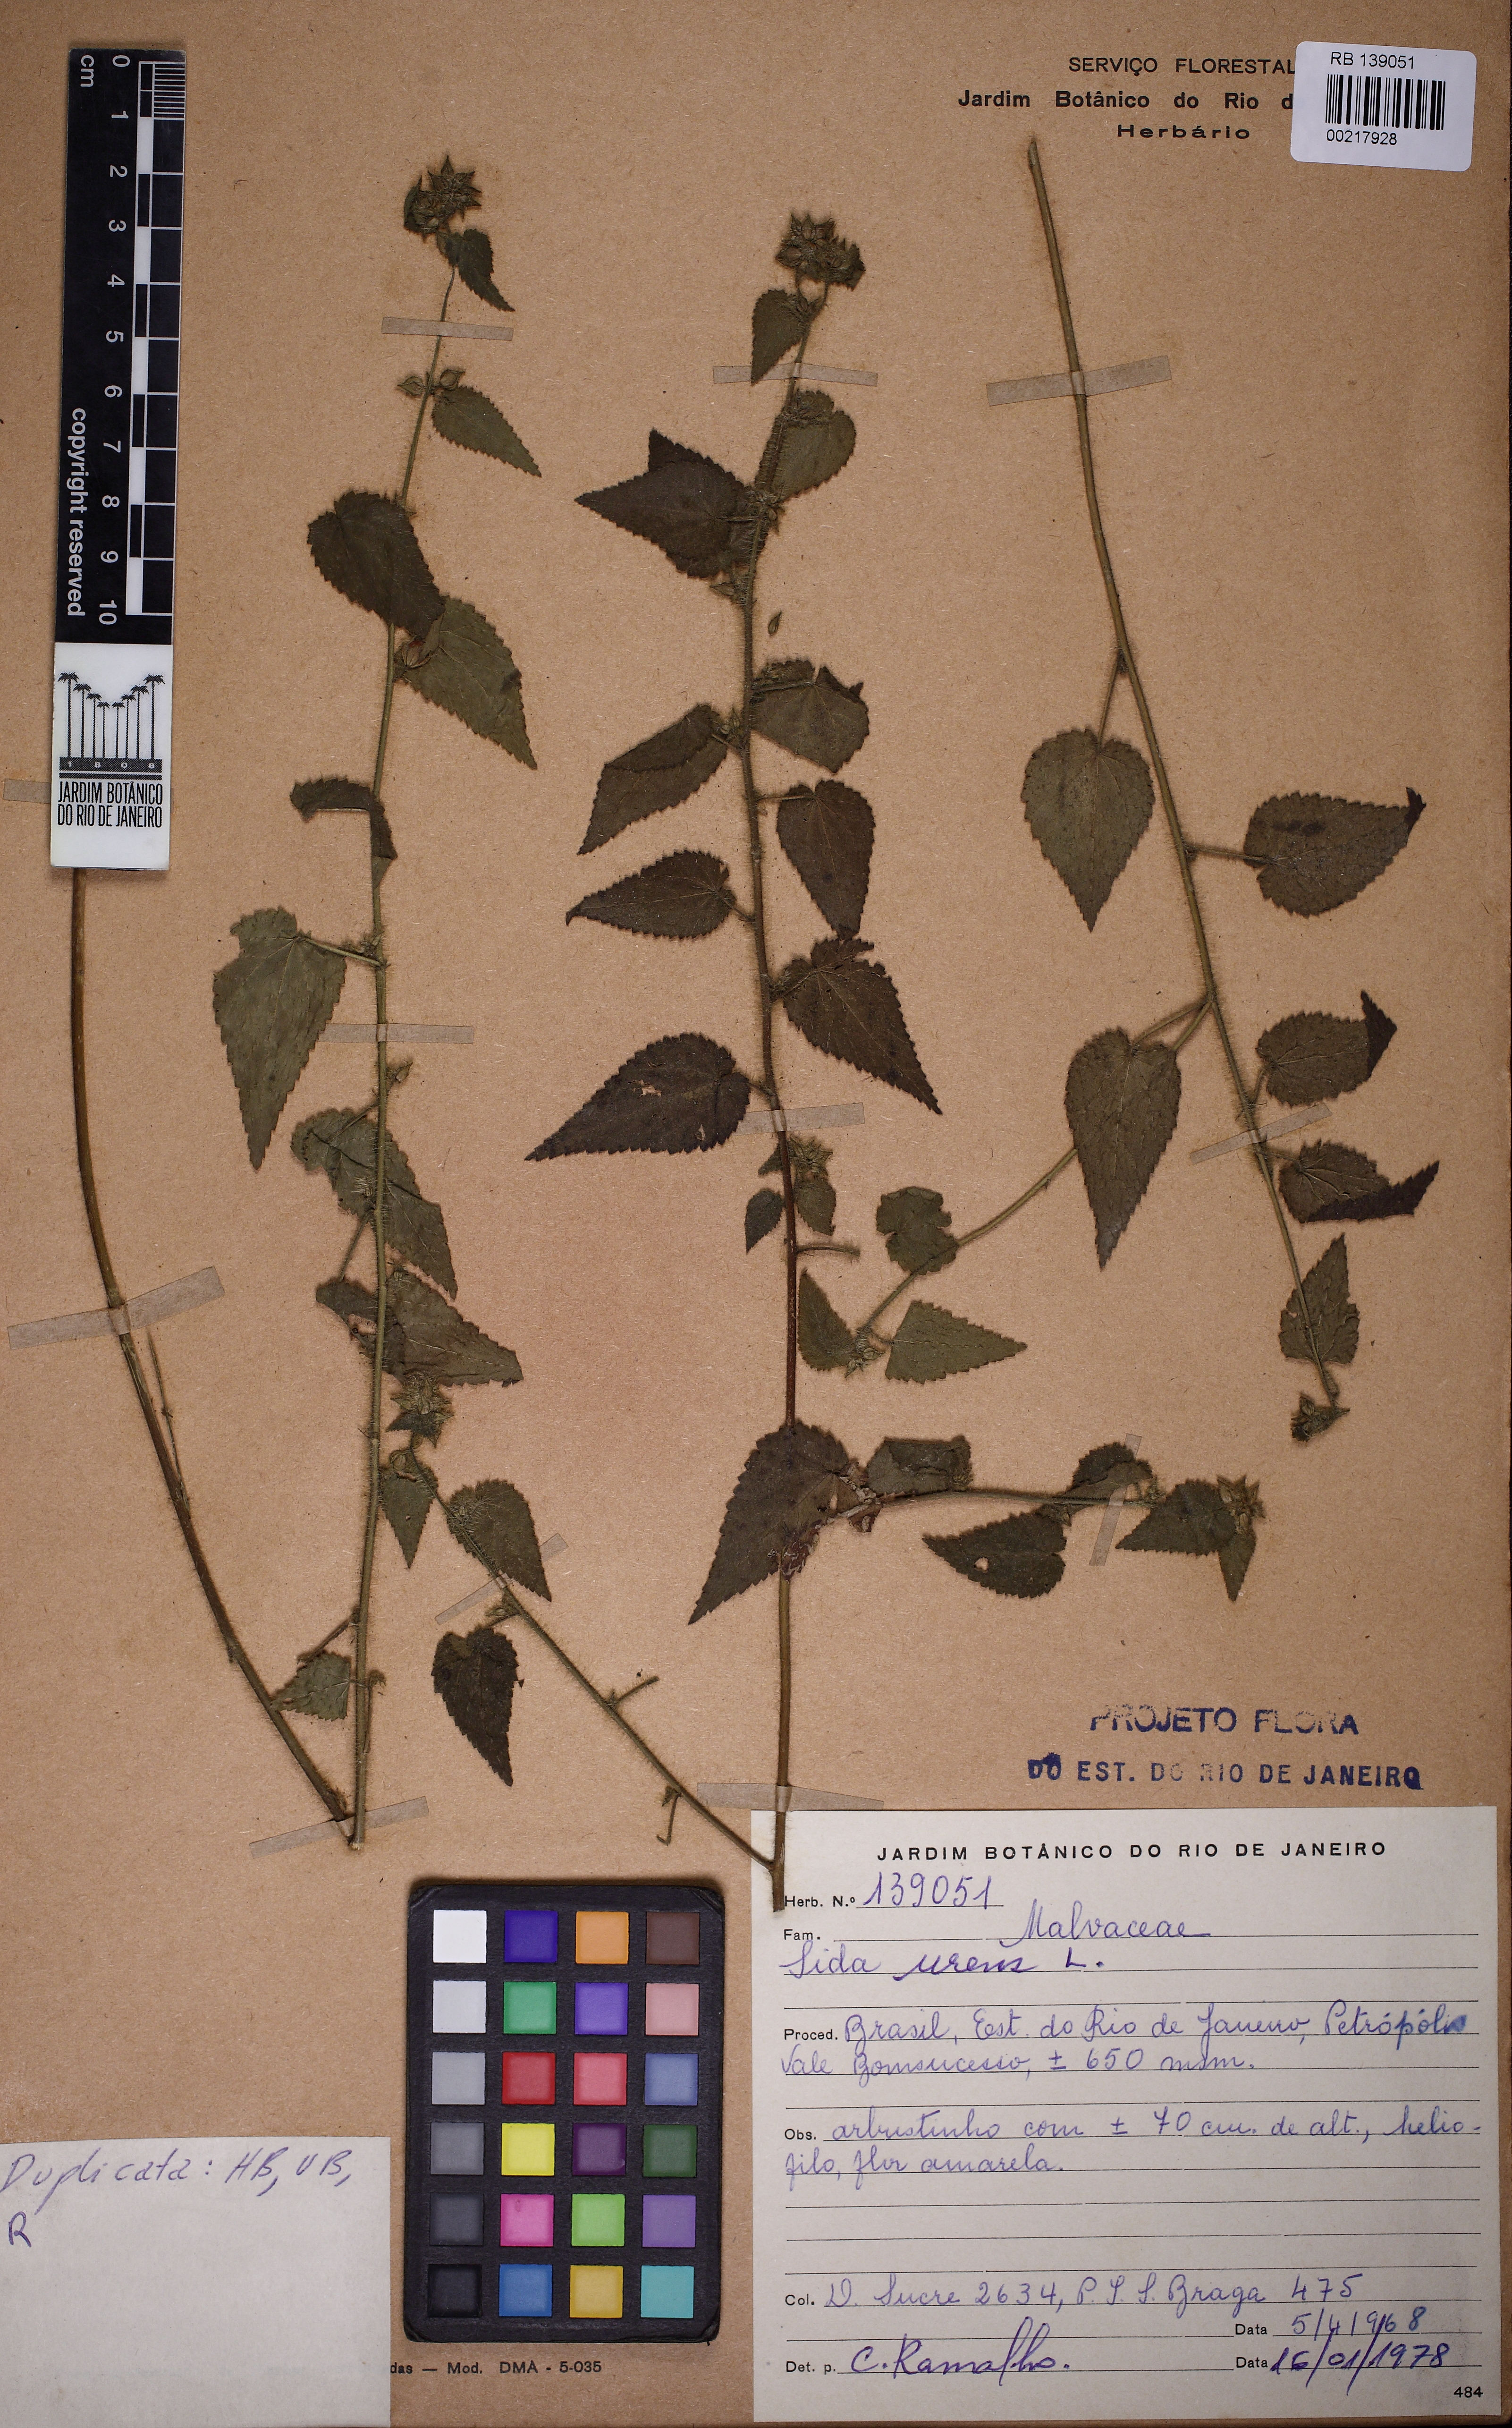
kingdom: Plantae
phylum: Tracheophyta
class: Magnoliopsida
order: Malvales
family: Malvaceae
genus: Sida
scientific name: Sida urens
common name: Tropical fanpetals
